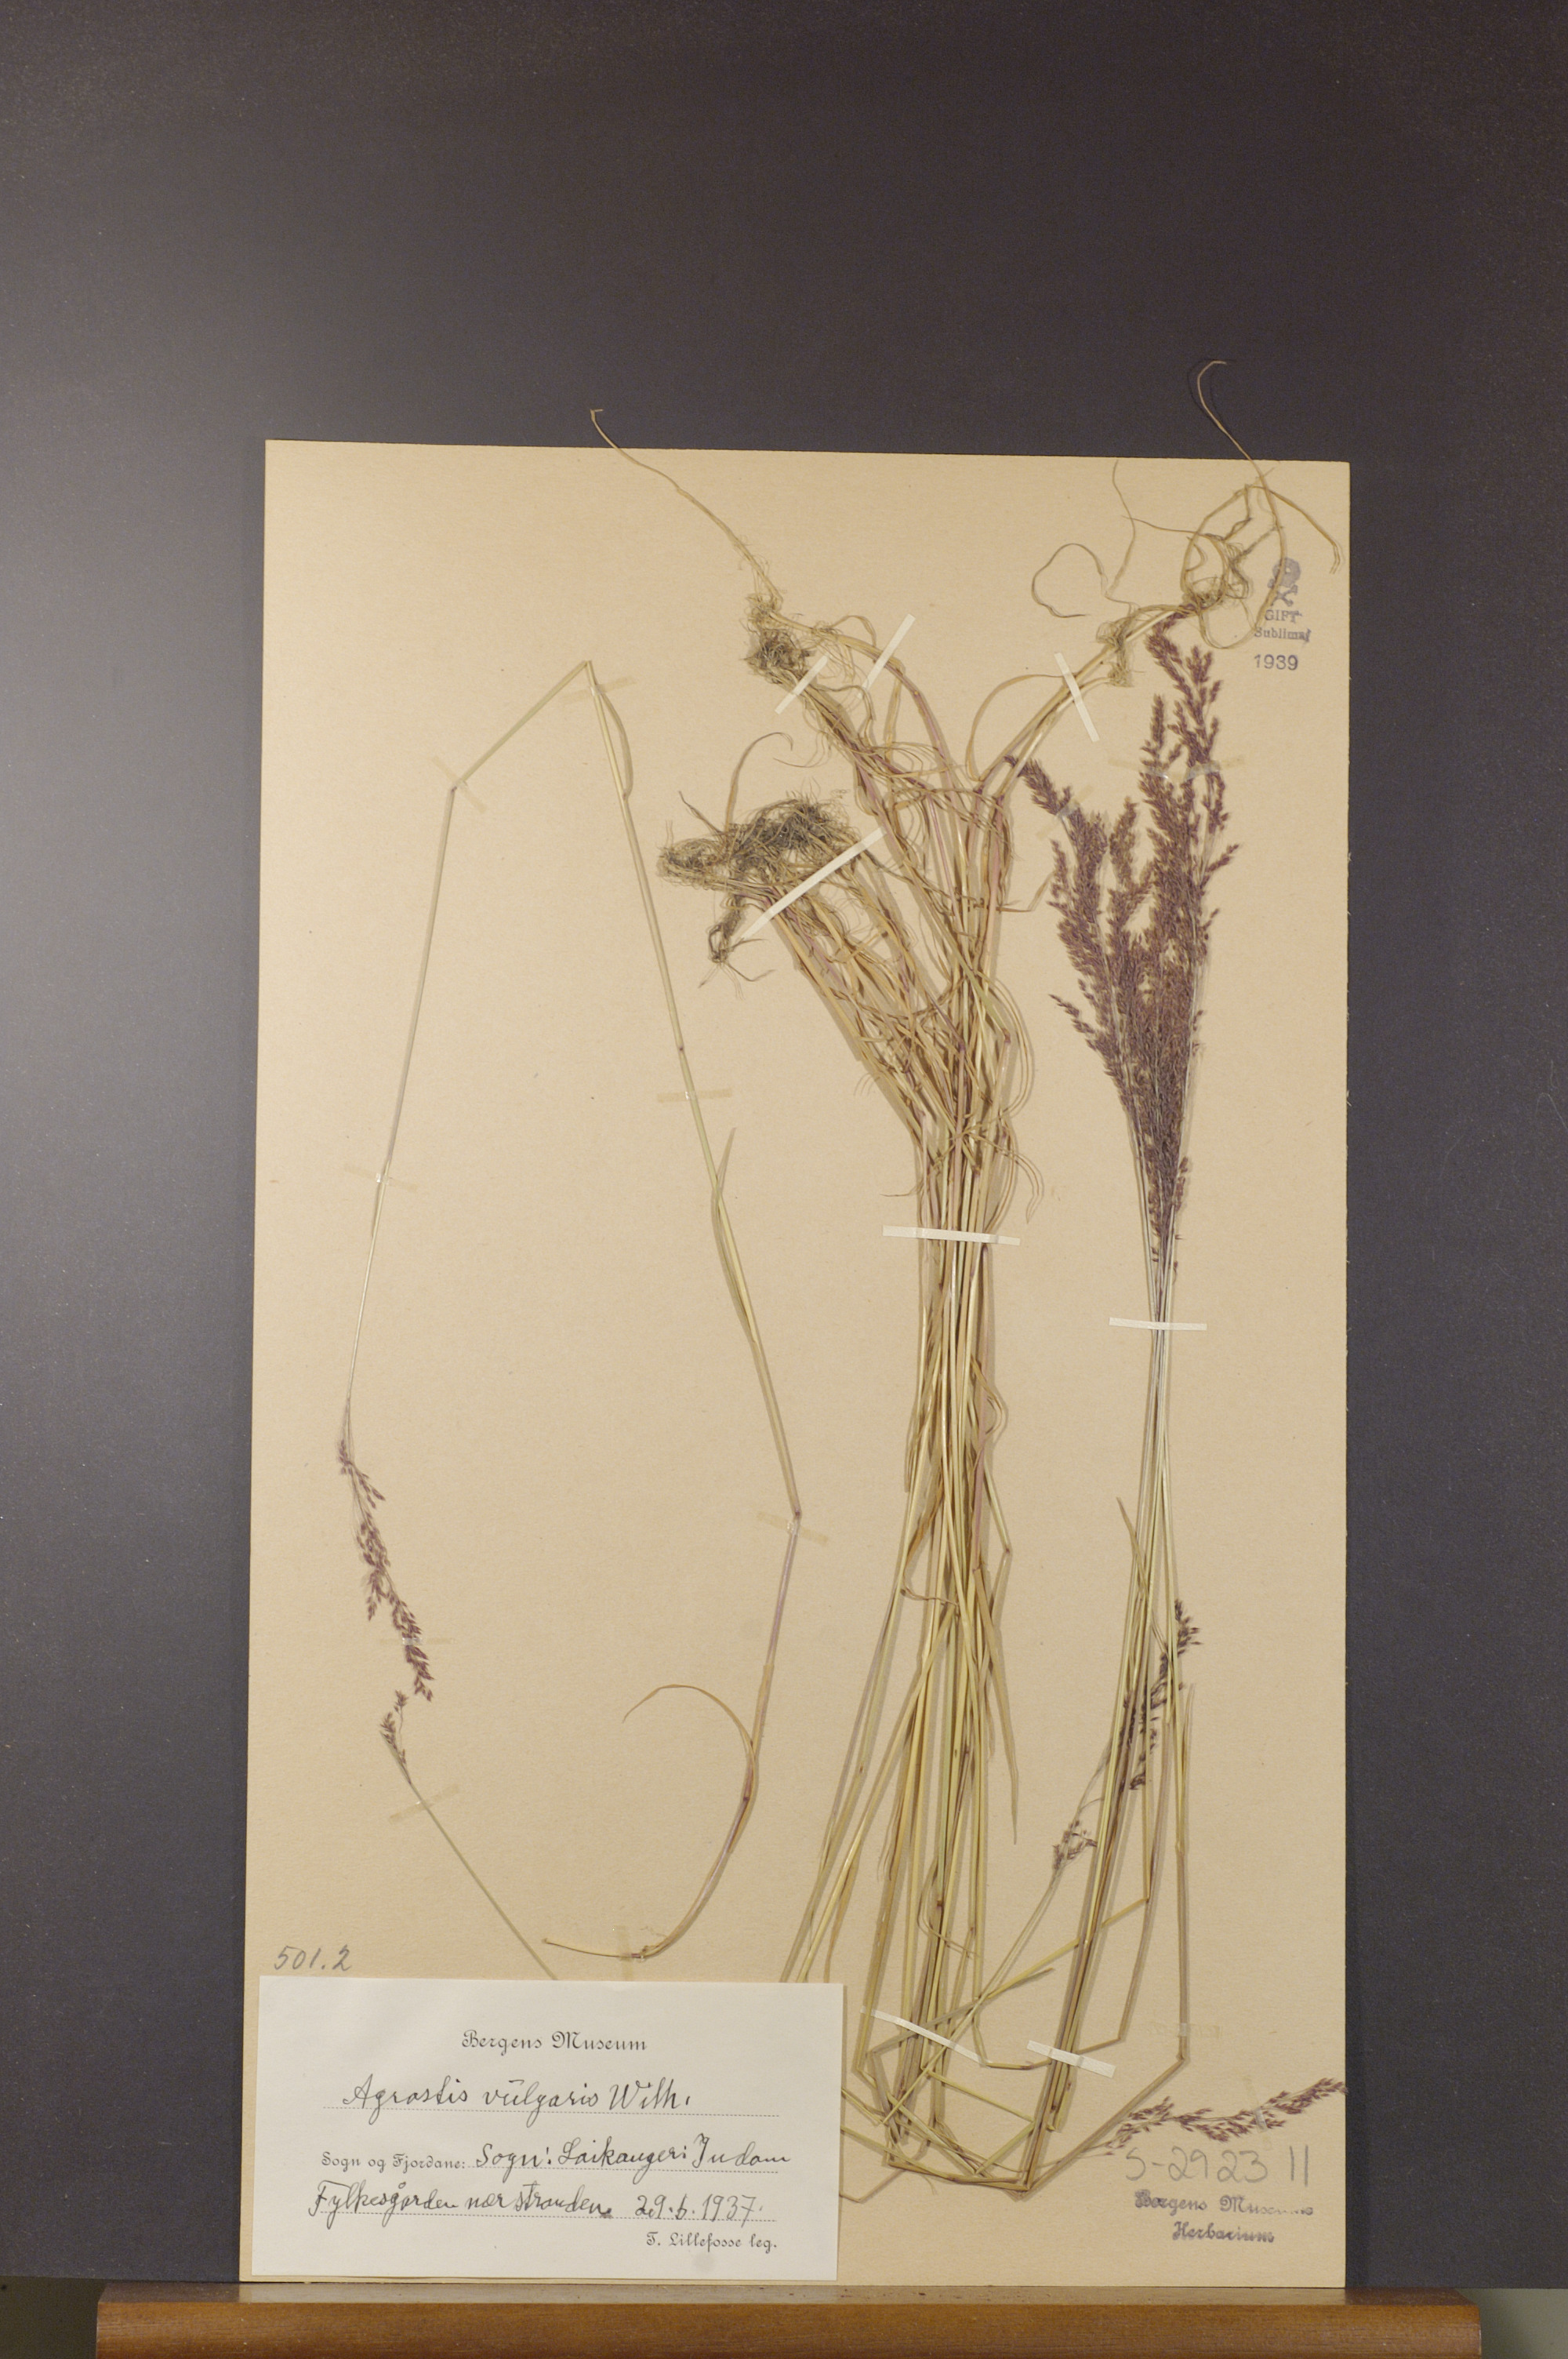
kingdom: Plantae
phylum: Tracheophyta
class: Liliopsida
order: Poales
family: Poaceae
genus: Agrostis
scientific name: Agrostis capillaris
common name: Colonial bentgrass
